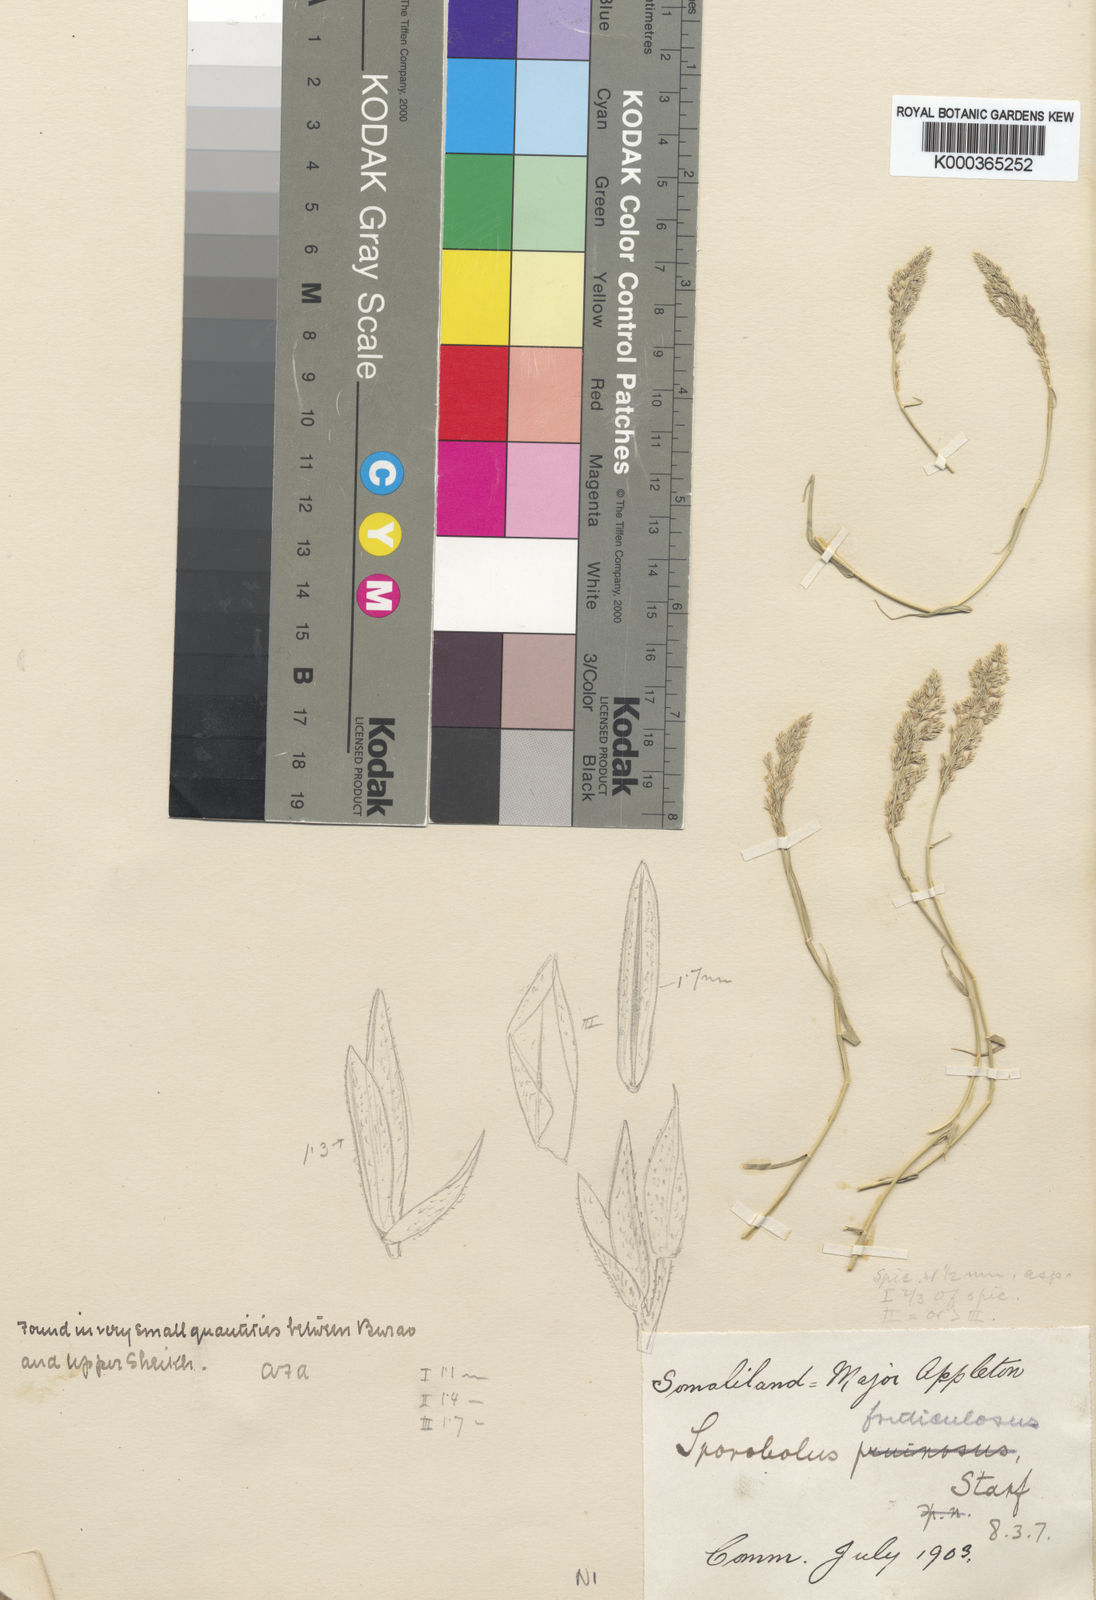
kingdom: Plantae
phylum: Tracheophyta
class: Liliopsida
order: Poales
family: Poaceae
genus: Sporobolus
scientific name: Sporobolus ruspolianus
